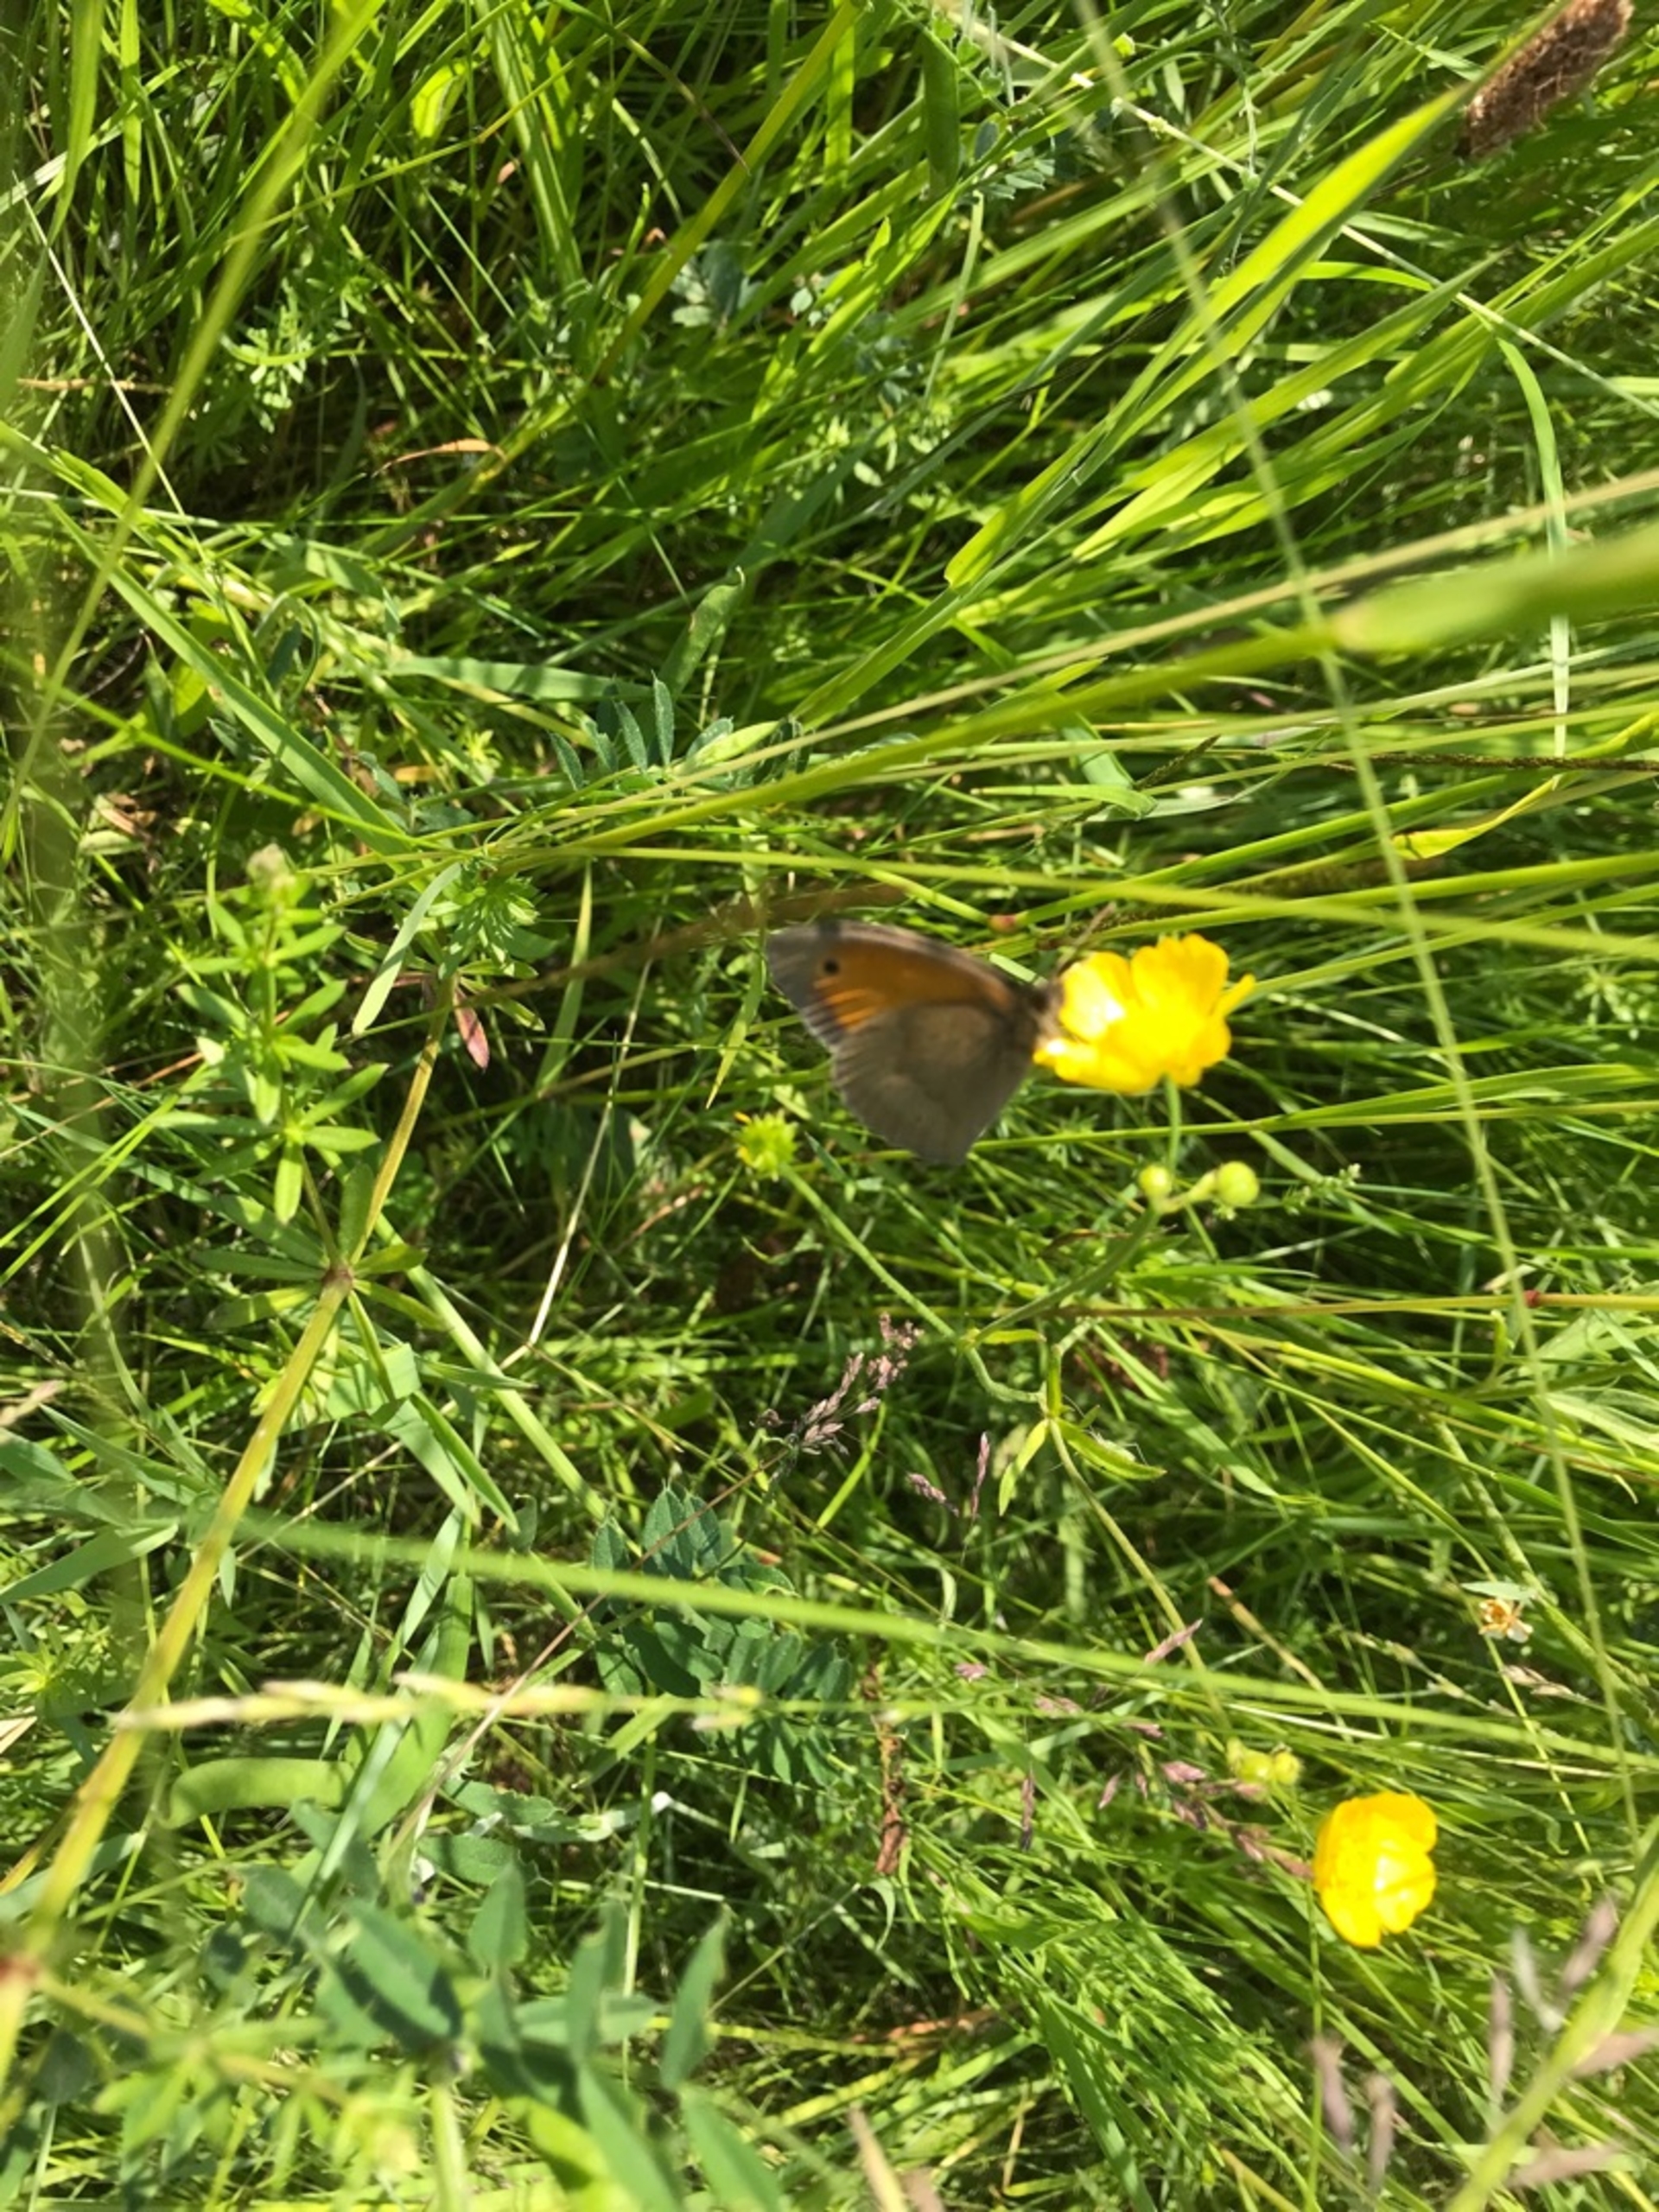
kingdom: Animalia
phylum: Arthropoda
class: Insecta
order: Lepidoptera
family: Nymphalidae
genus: Maniola
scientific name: Maniola jurtina
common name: Græsrandøje
